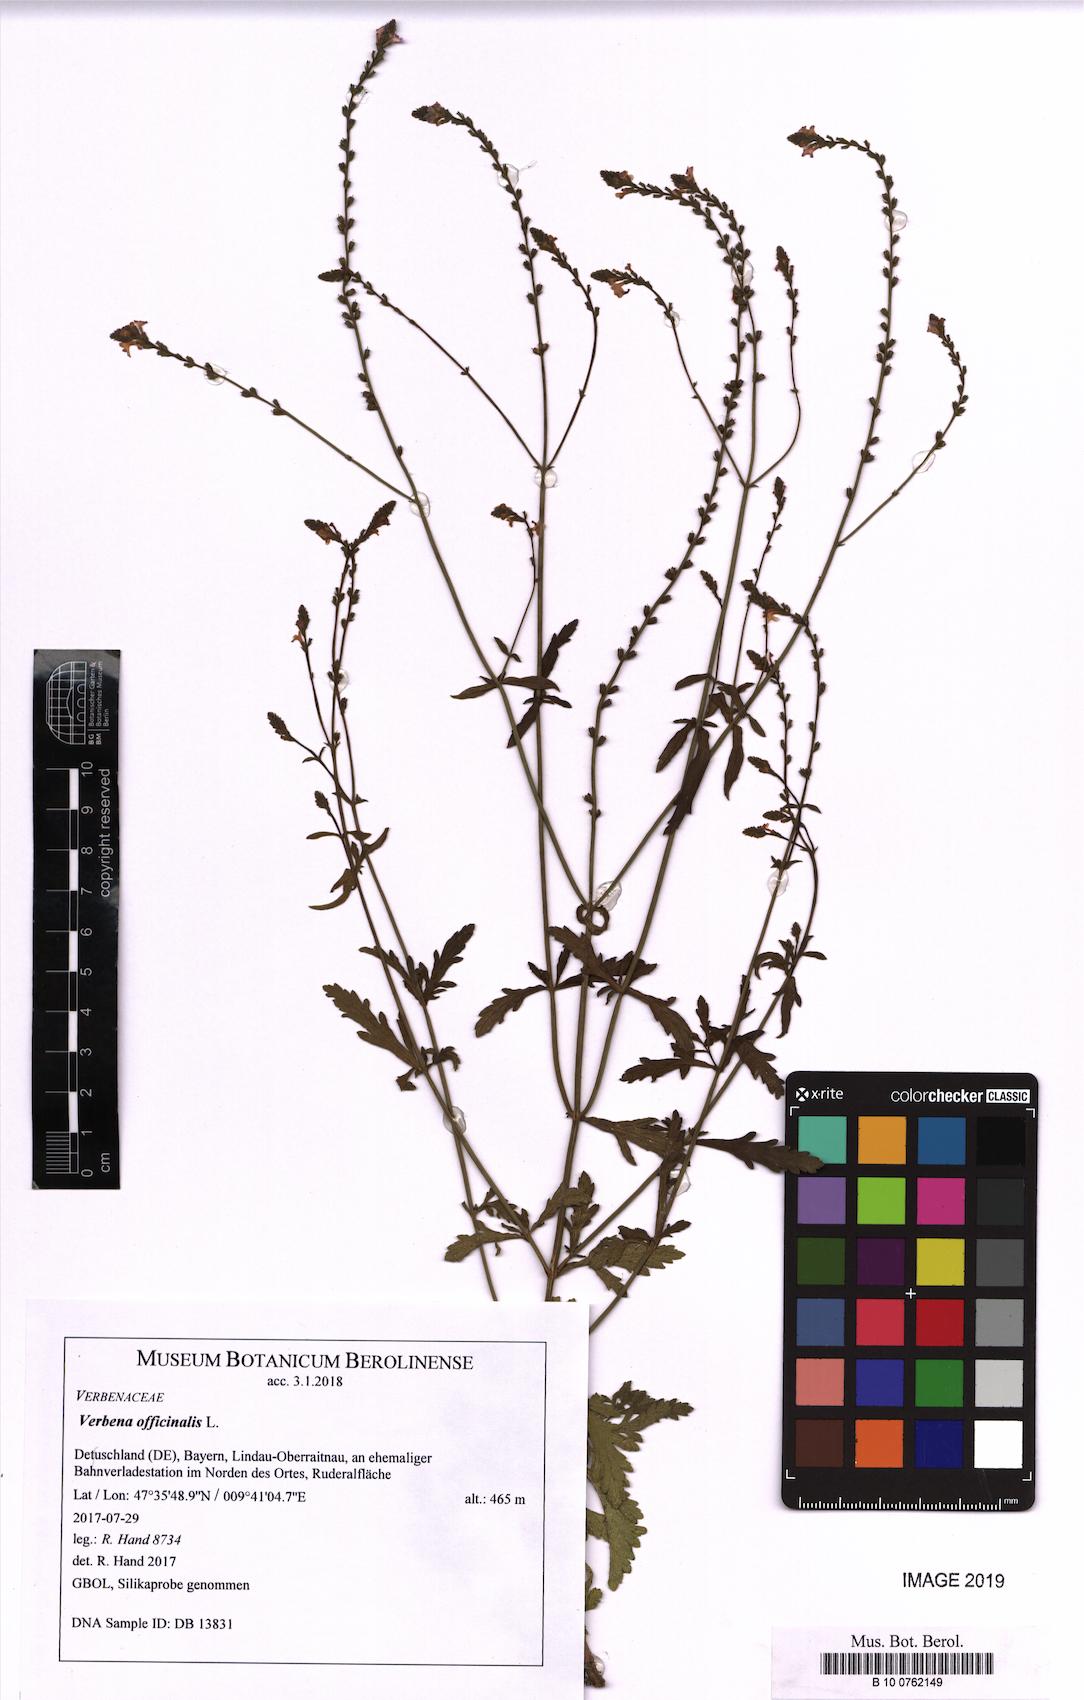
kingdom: Plantae
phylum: Tracheophyta
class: Magnoliopsida
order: Lamiales
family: Verbenaceae
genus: Verbena
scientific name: Verbena officinalis
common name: Vervain
